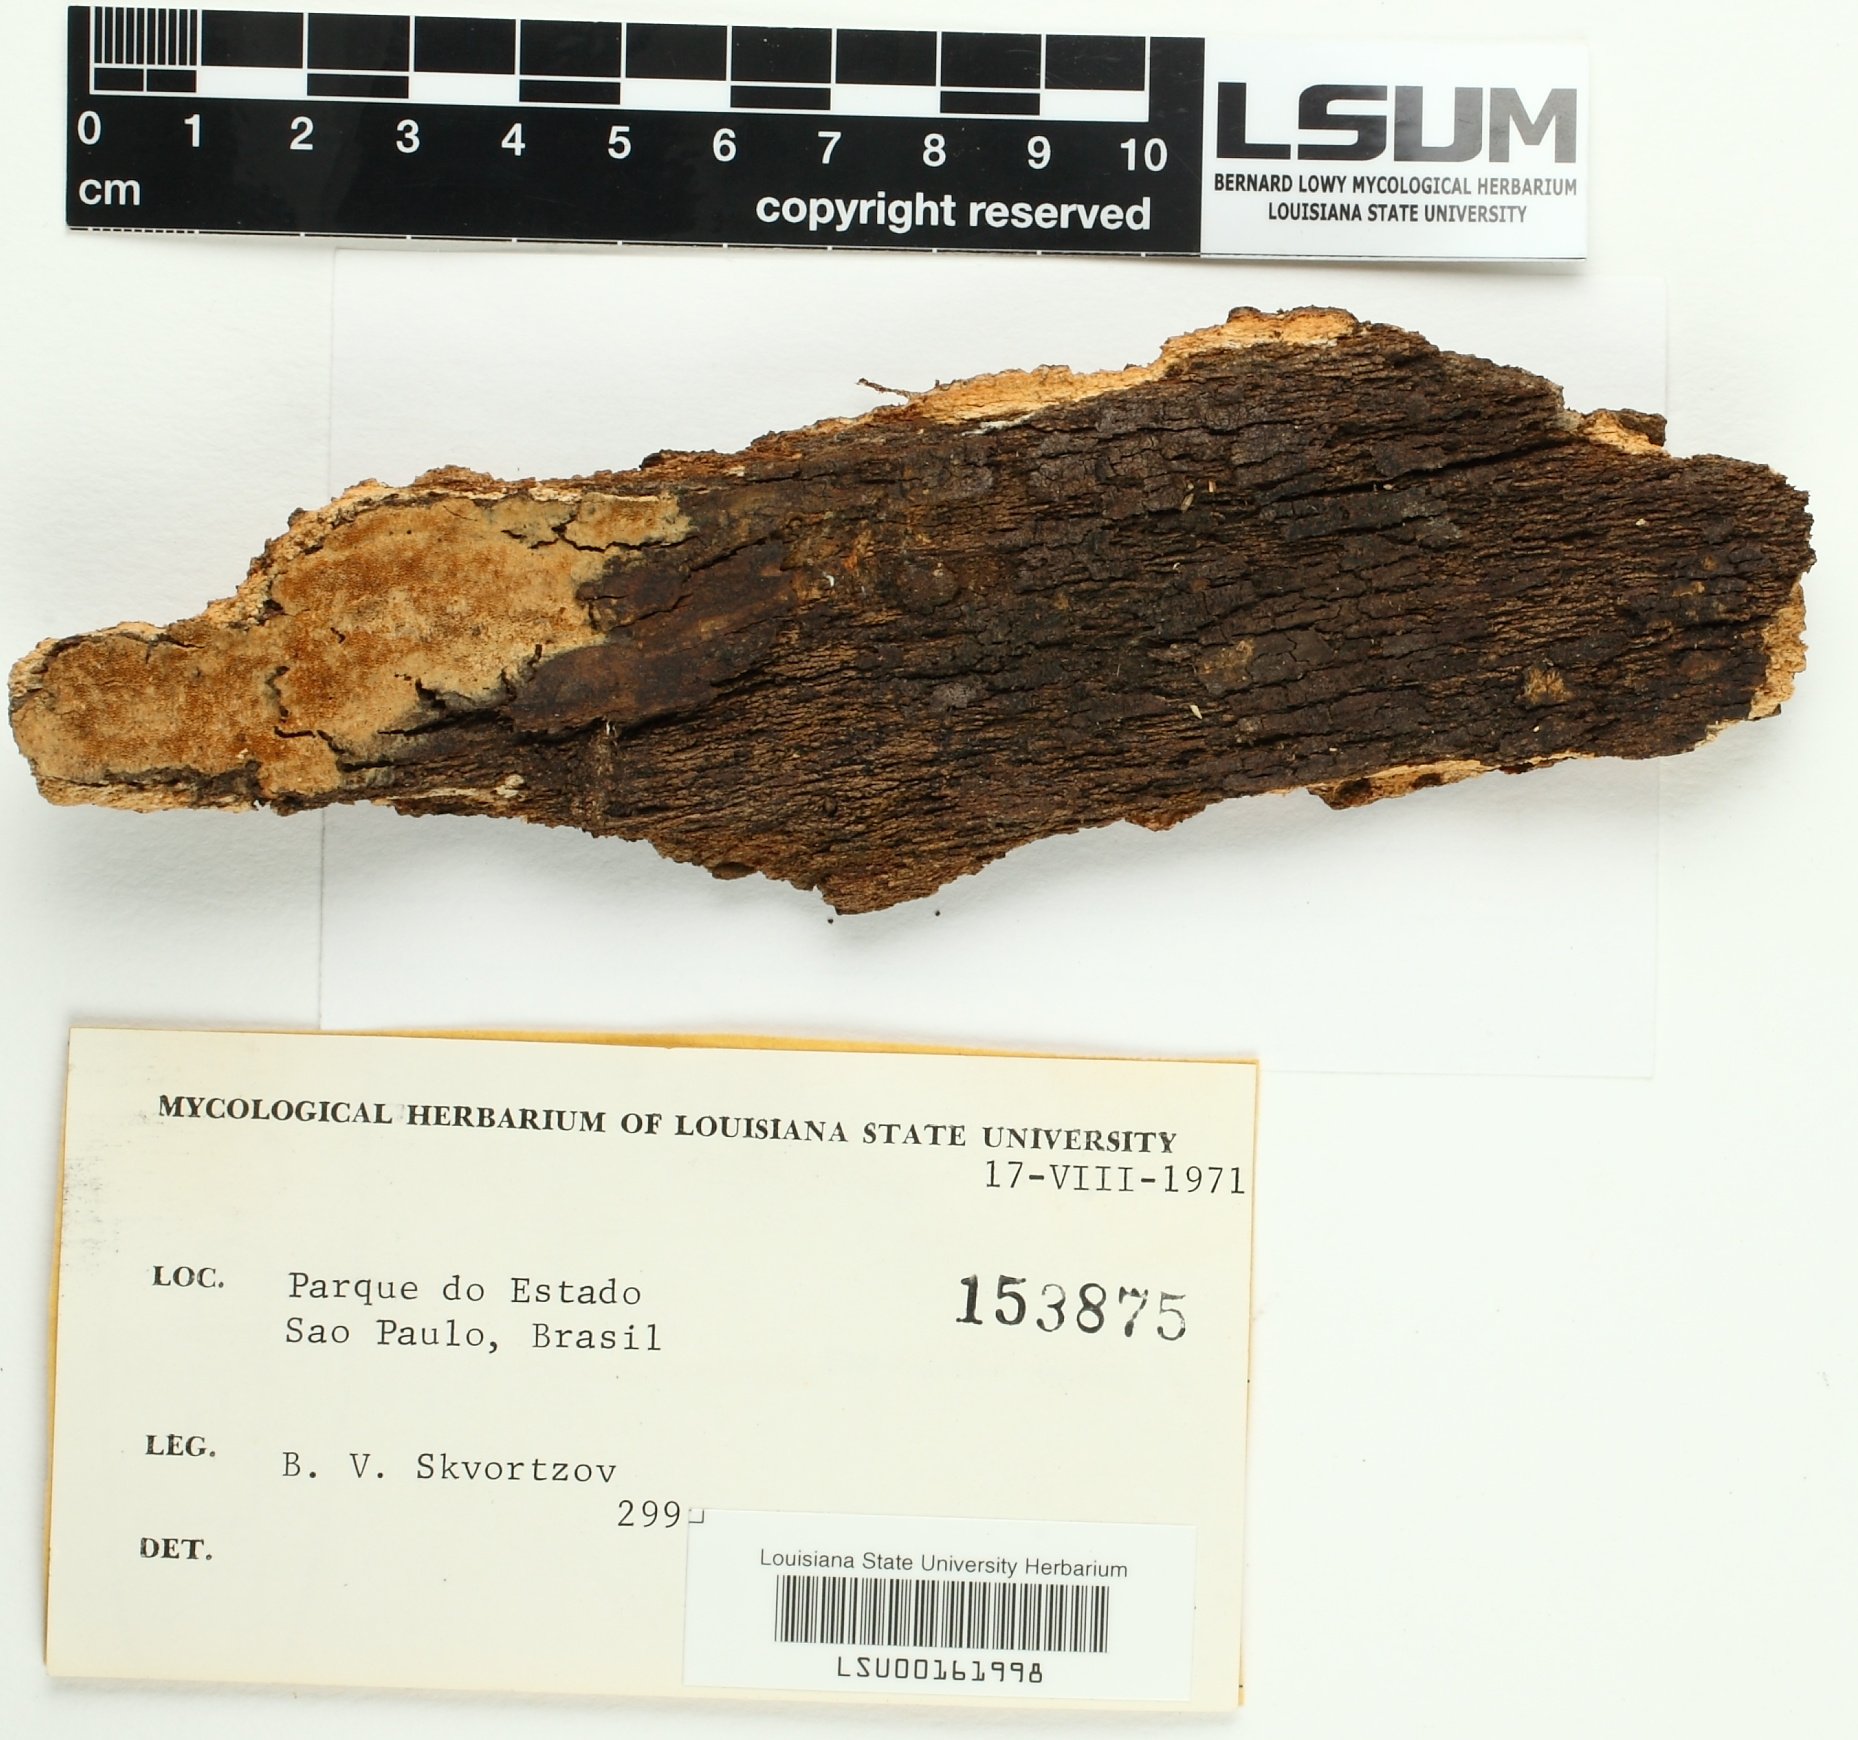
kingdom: Fungi
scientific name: Fungi
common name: Fungi
